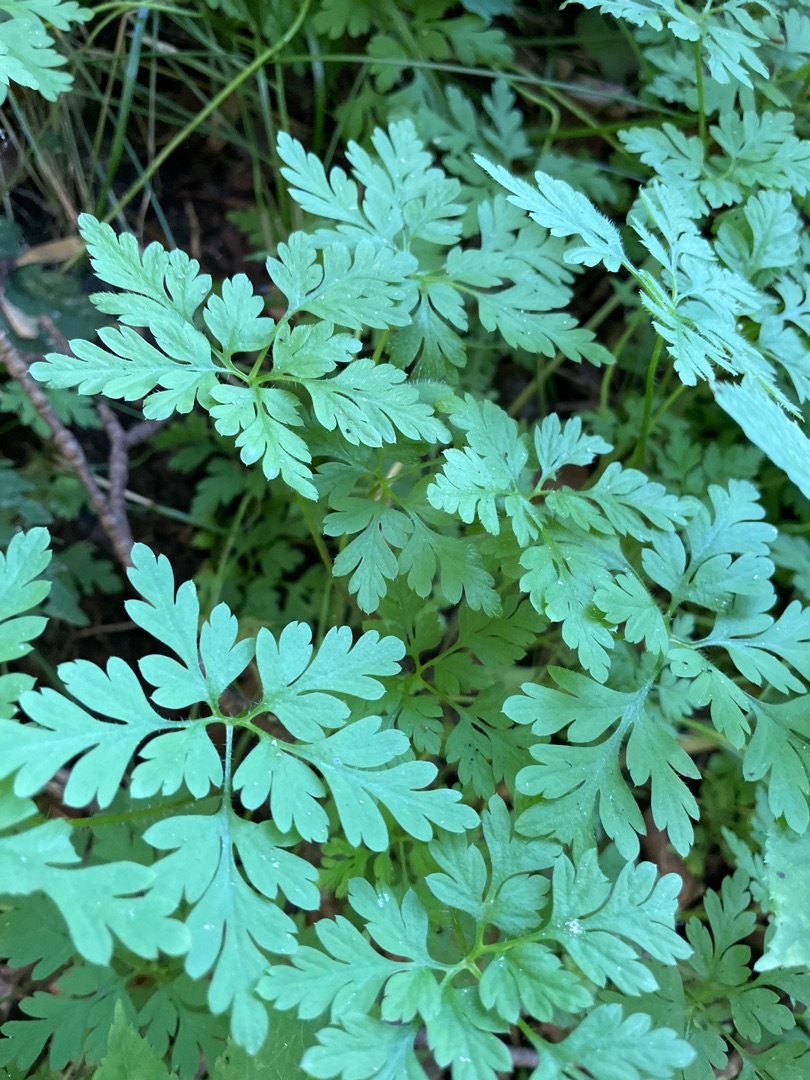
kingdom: Plantae
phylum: Tracheophyta
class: Magnoliopsida
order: Geraniales
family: Geraniaceae
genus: Geranium
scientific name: Geranium robertianum
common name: Stinkende storkenæb
